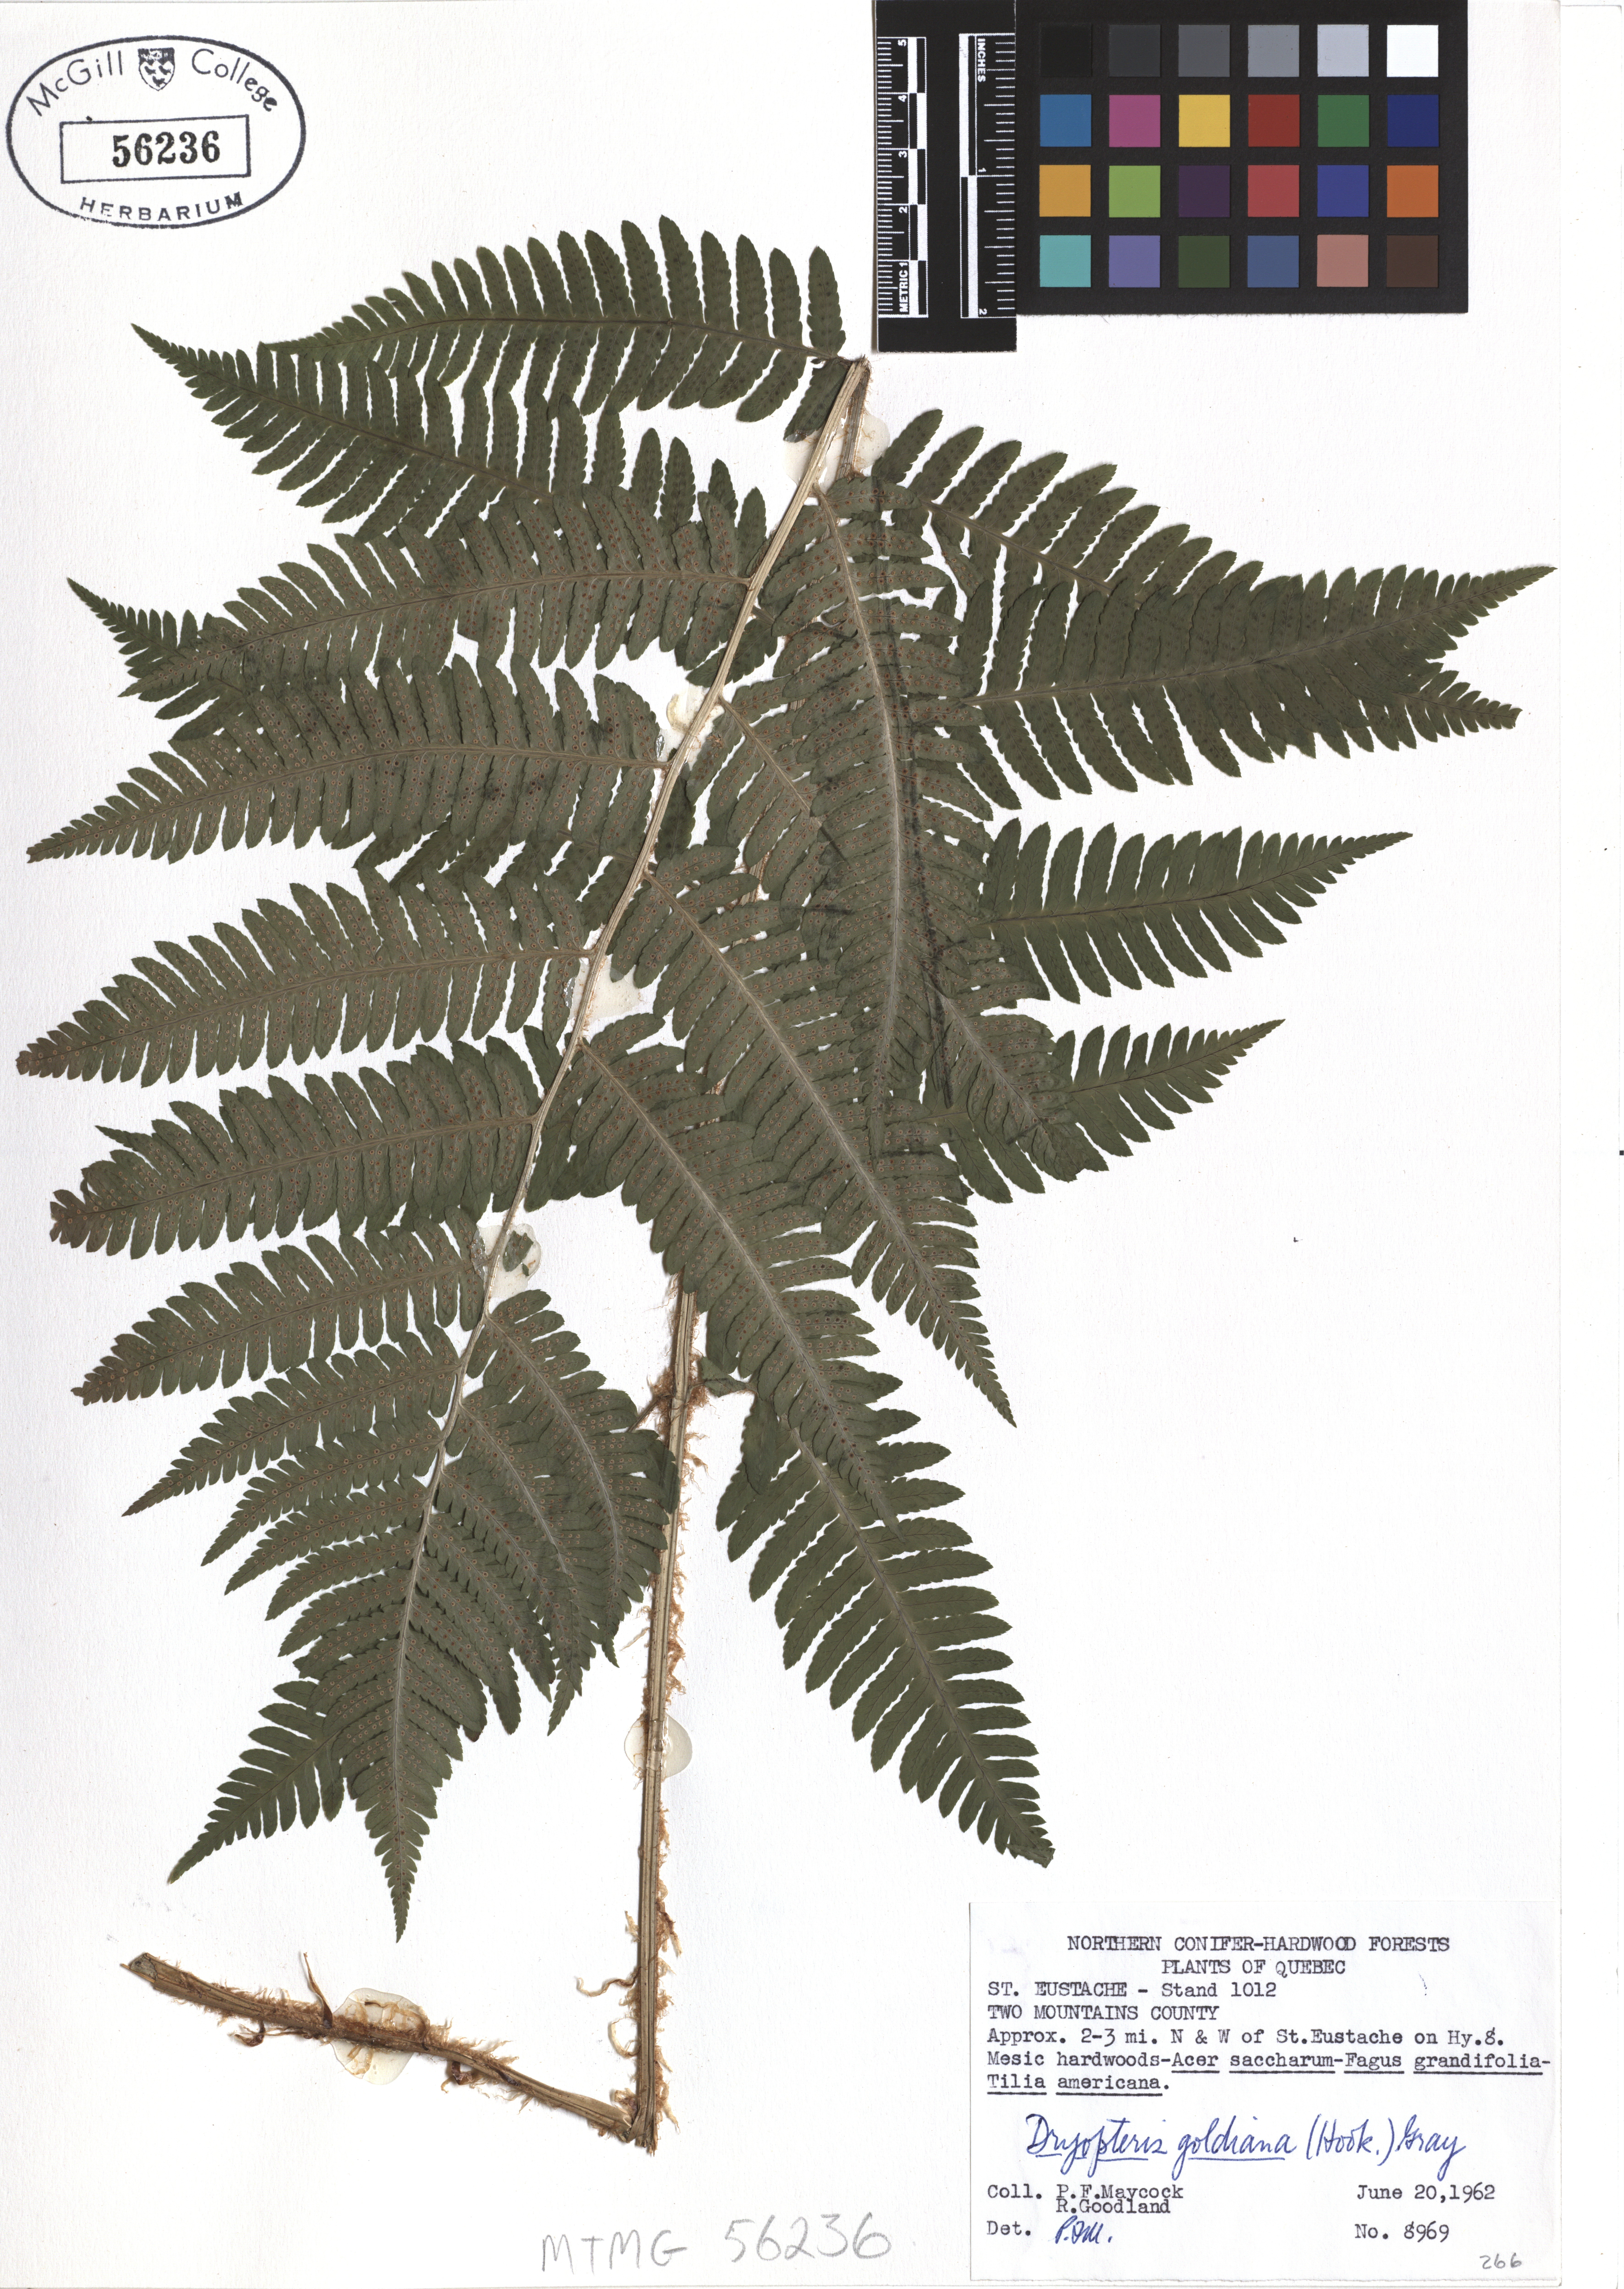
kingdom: Plantae
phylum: Tracheophyta
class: Polypodiopsida
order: Polypodiales
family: Dryopteridaceae
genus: Dryopteris
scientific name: Dryopteris goeldiana
